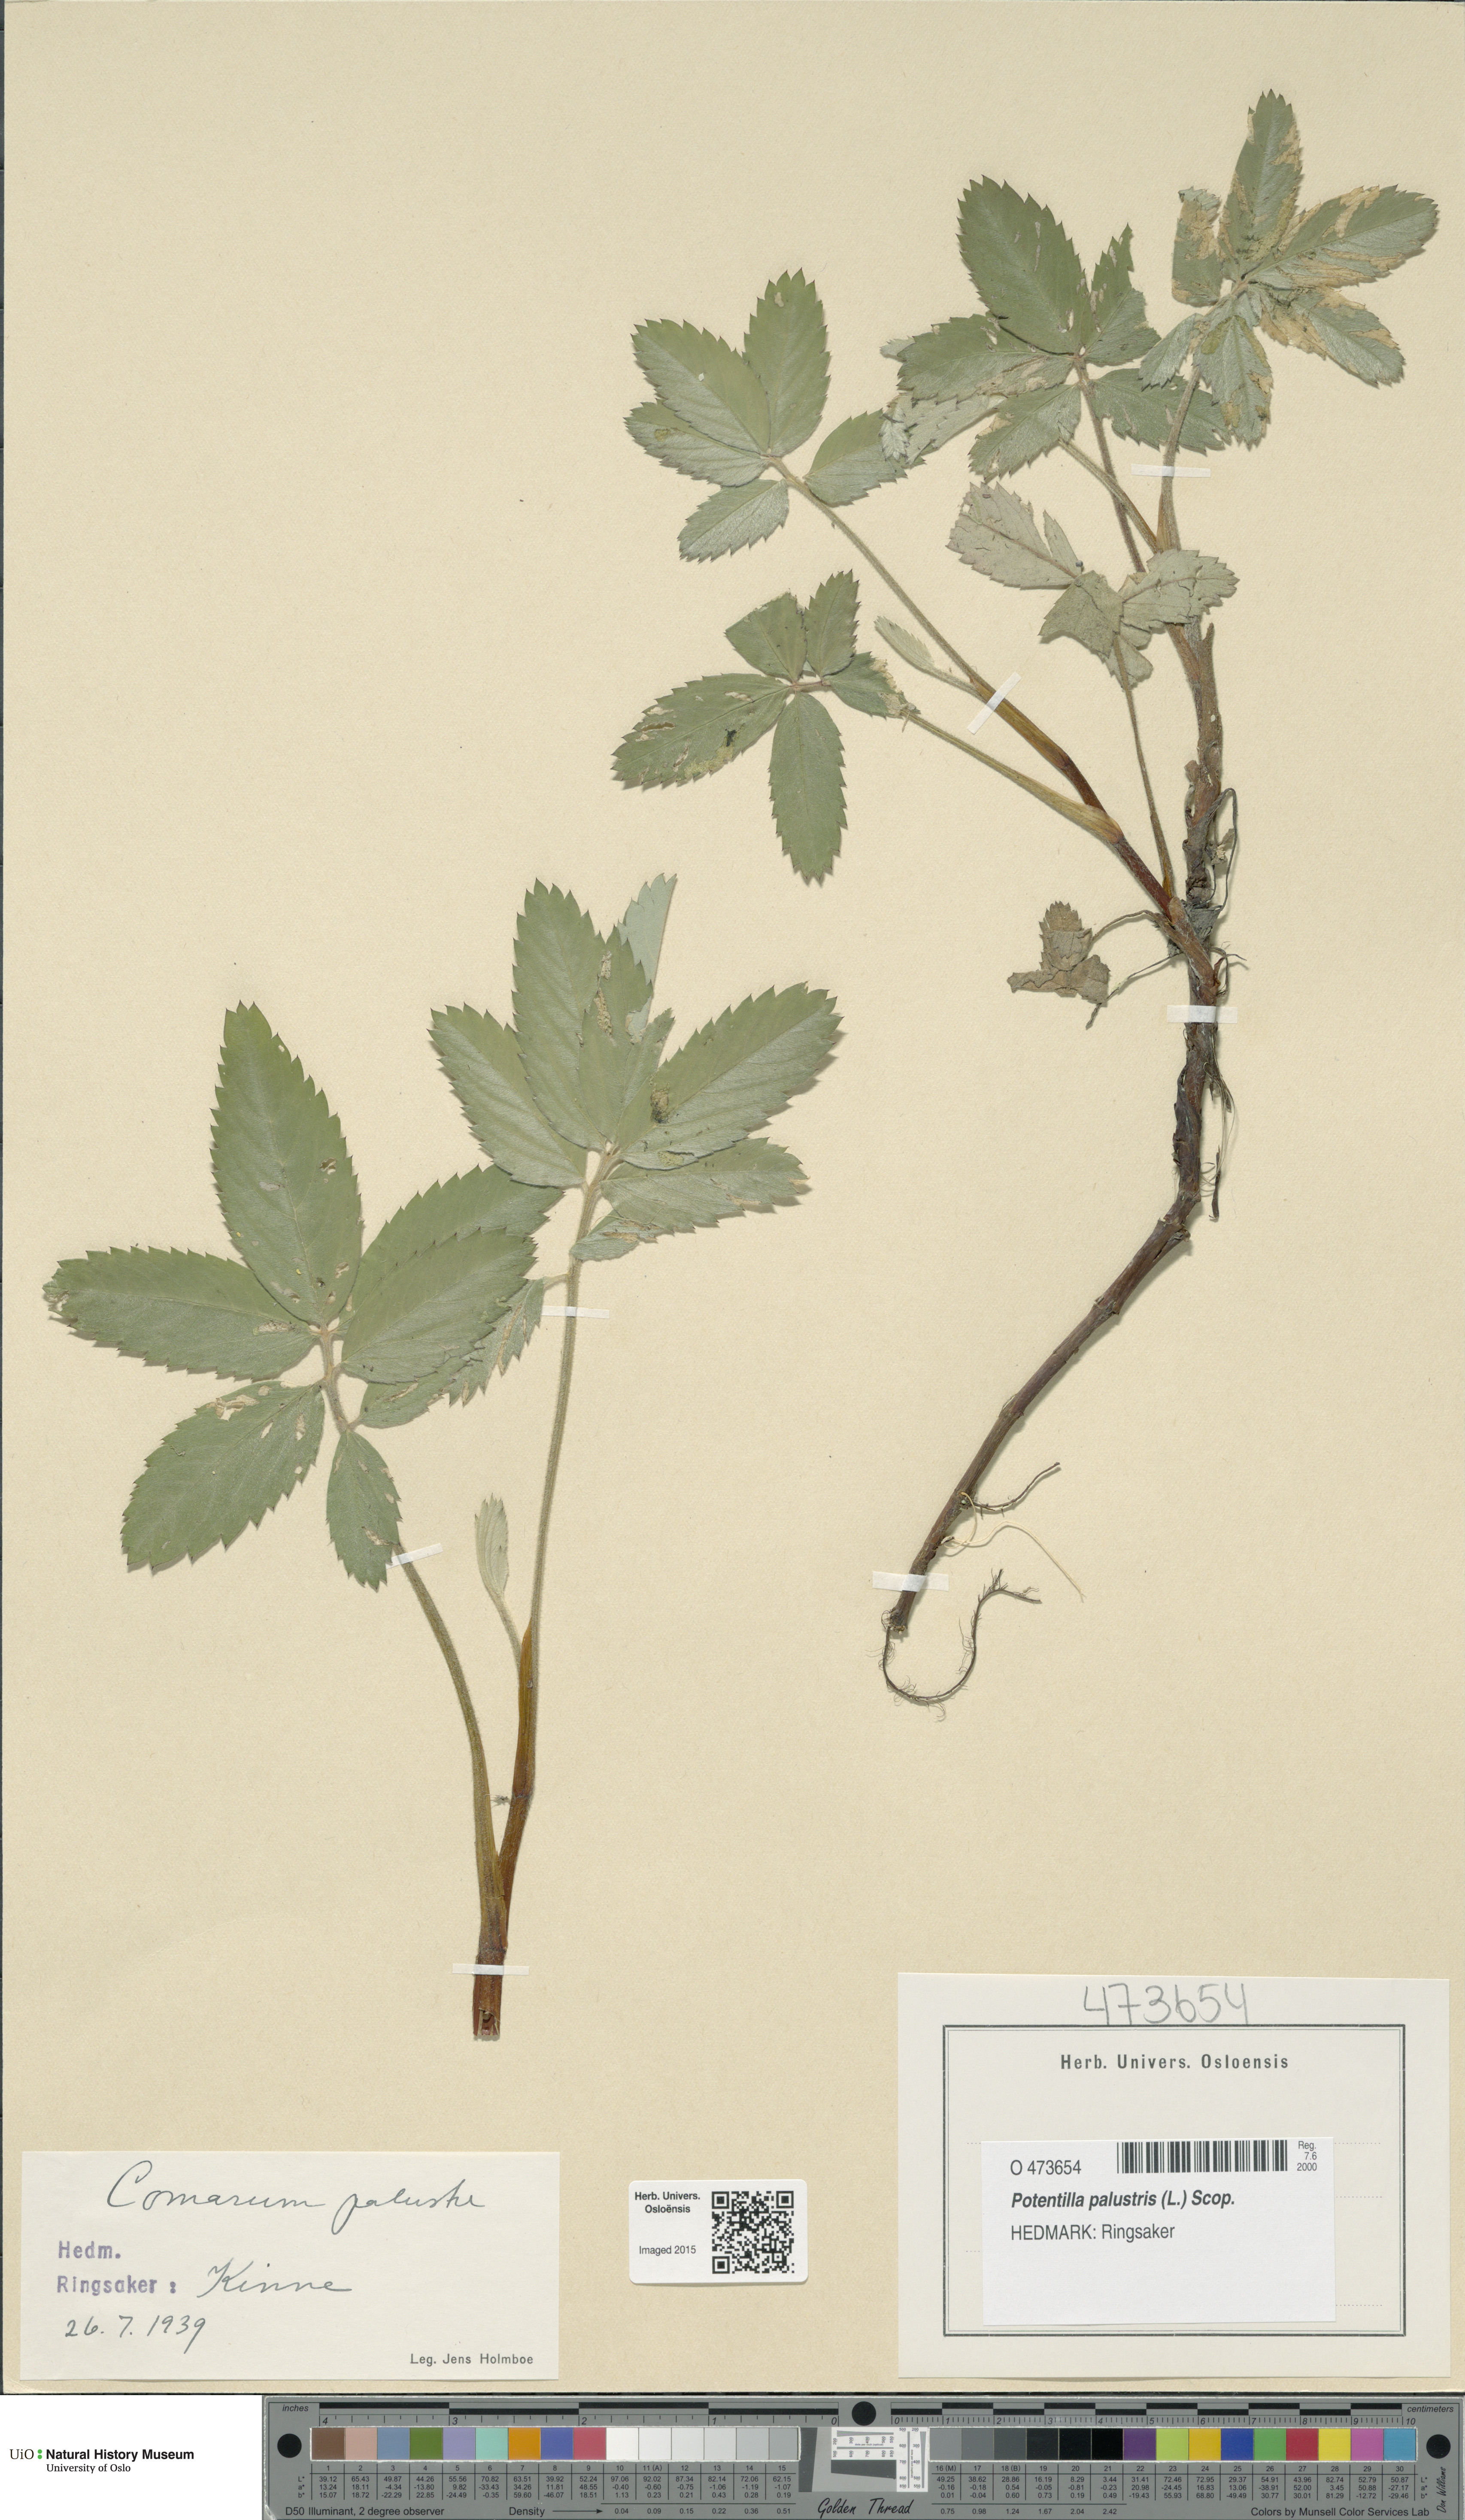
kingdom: Plantae
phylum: Tracheophyta
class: Magnoliopsida
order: Rosales
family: Rosaceae
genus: Comarum
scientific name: Comarum palustre
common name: Marsh cinquefoil
